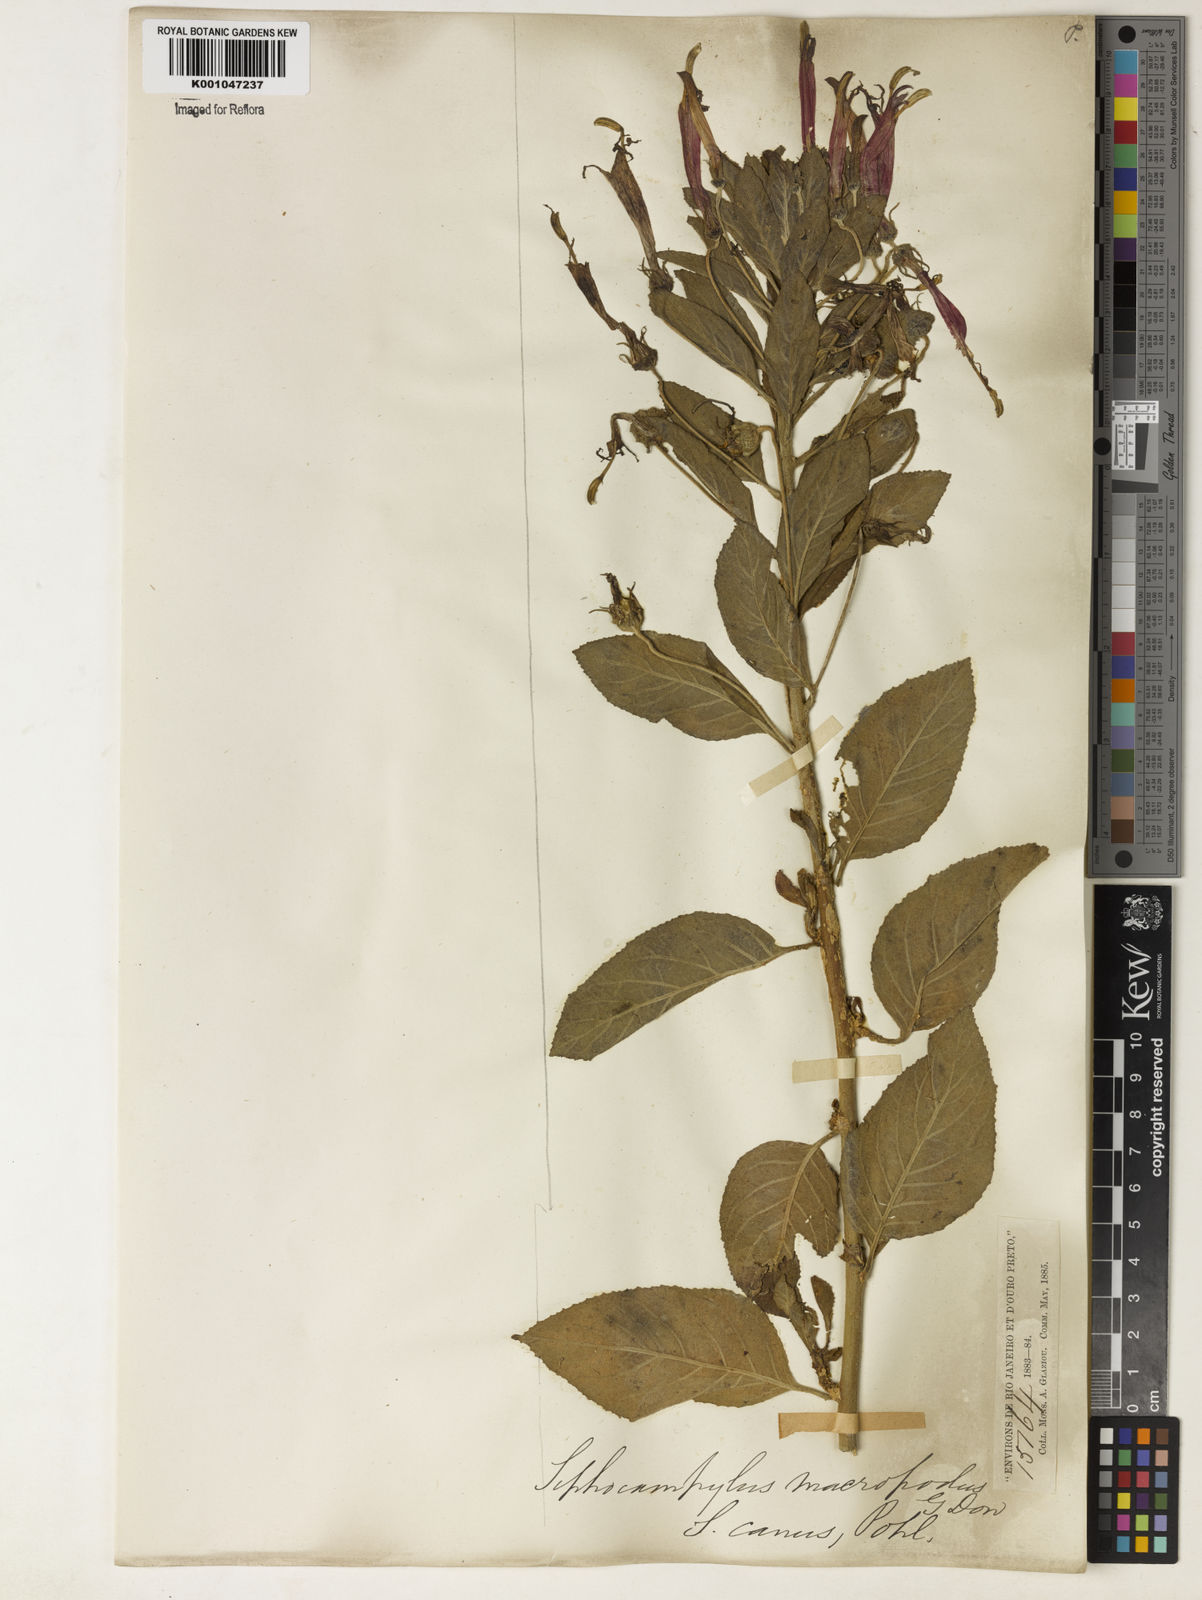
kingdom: Plantae
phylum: Tracheophyta
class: Magnoliopsida
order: Asterales
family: Campanulaceae
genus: Siphocampylus
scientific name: Siphocampylus macropodus
